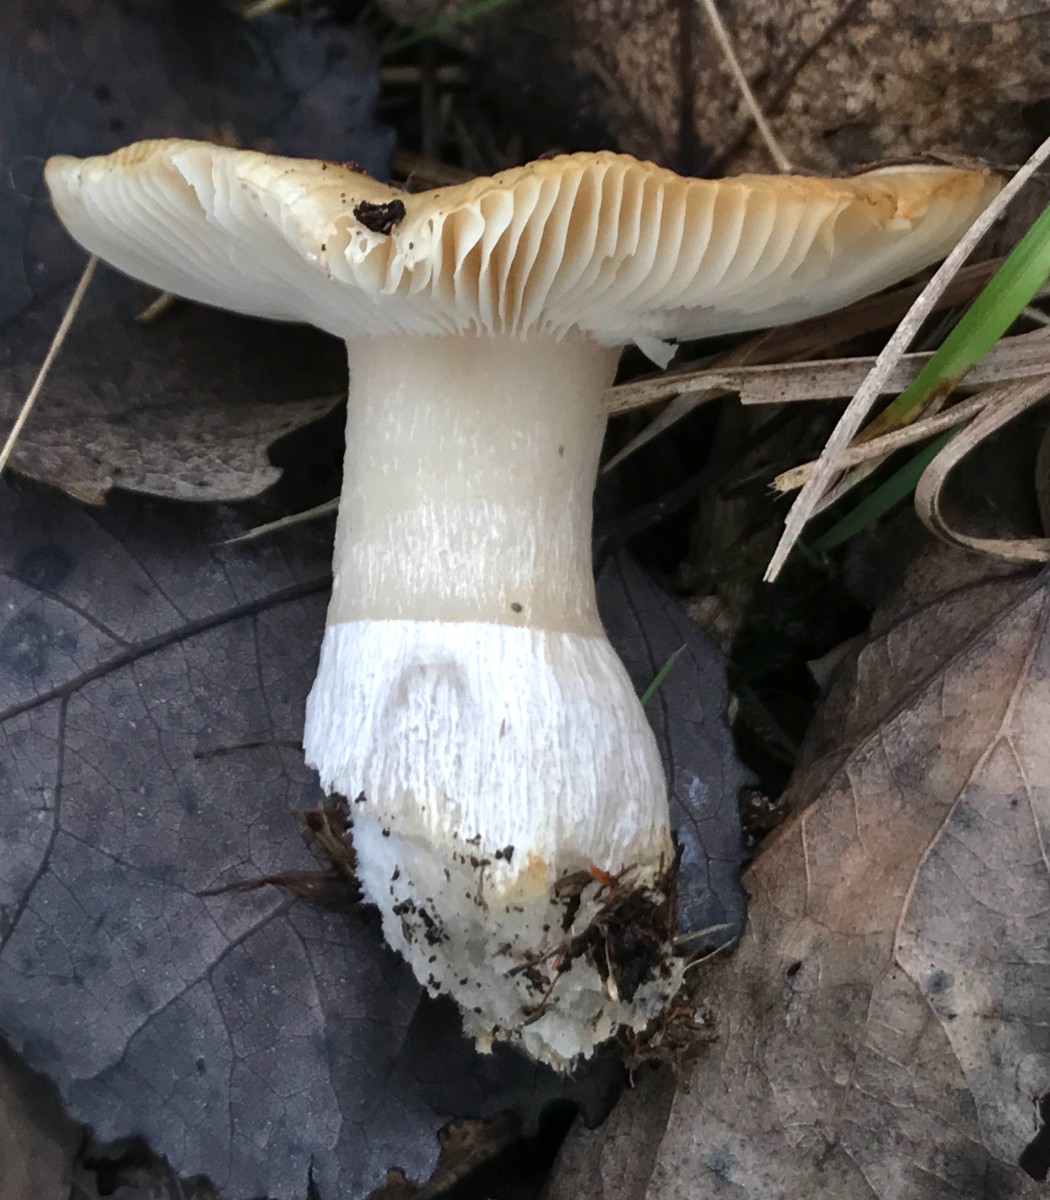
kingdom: Fungi
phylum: Basidiomycota
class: Agaricomycetes
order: Russulales
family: Russulaceae
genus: Russula
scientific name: Russula
